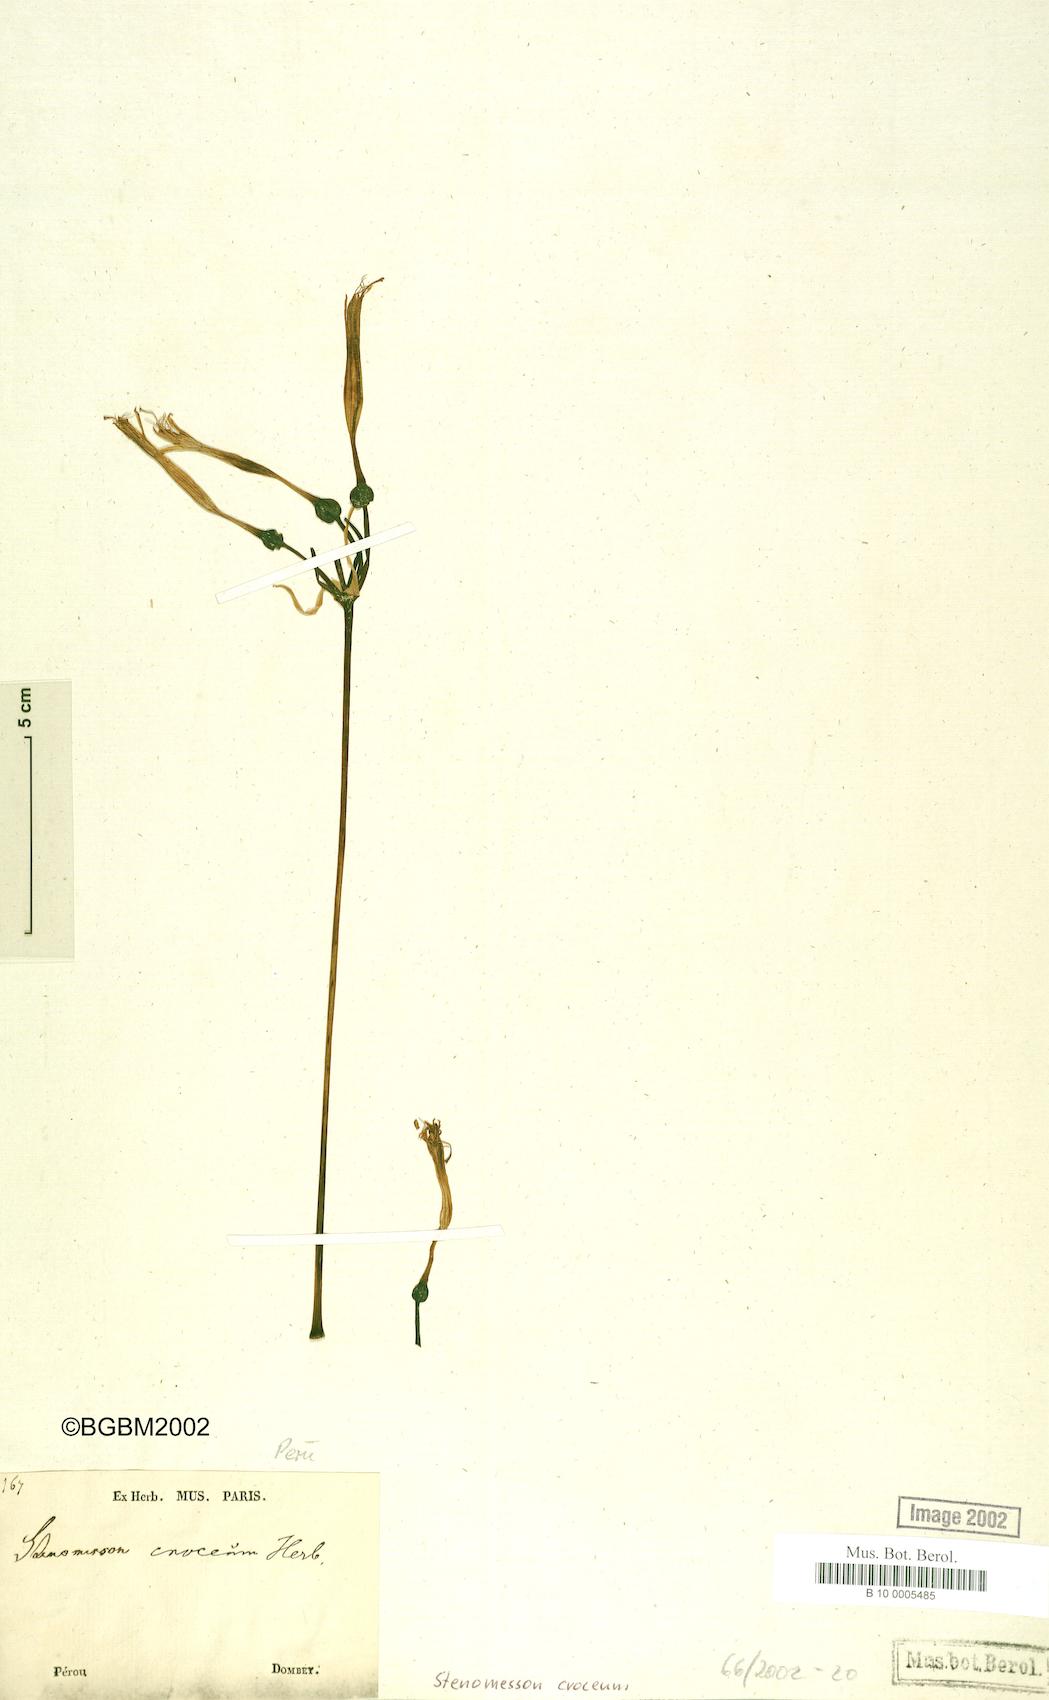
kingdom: Plantae
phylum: Tracheophyta
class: Liliopsida
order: Asparagales
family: Amaryllidaceae
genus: Stenomesson
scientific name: Stenomesson flavum
